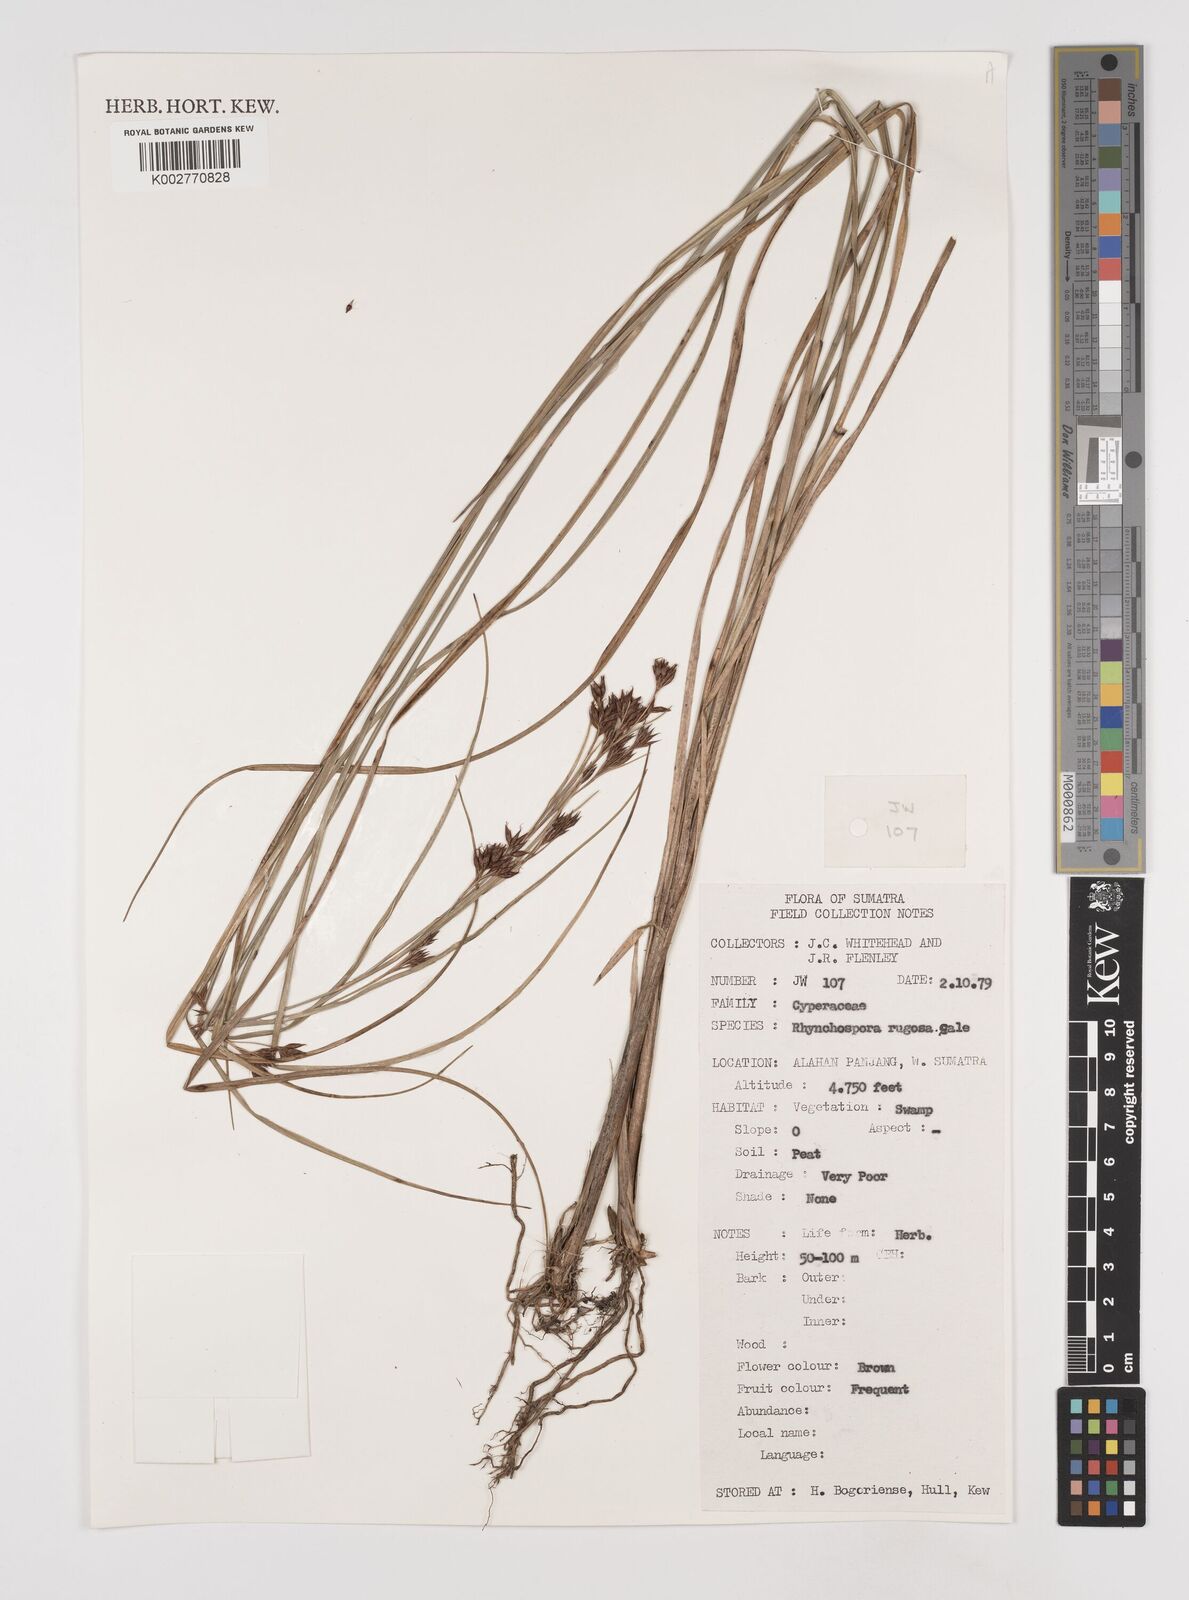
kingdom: Plantae
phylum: Tracheophyta
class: Liliopsida
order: Poales
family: Cyperaceae
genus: Rhynchospora
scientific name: Rhynchospora rugosa
